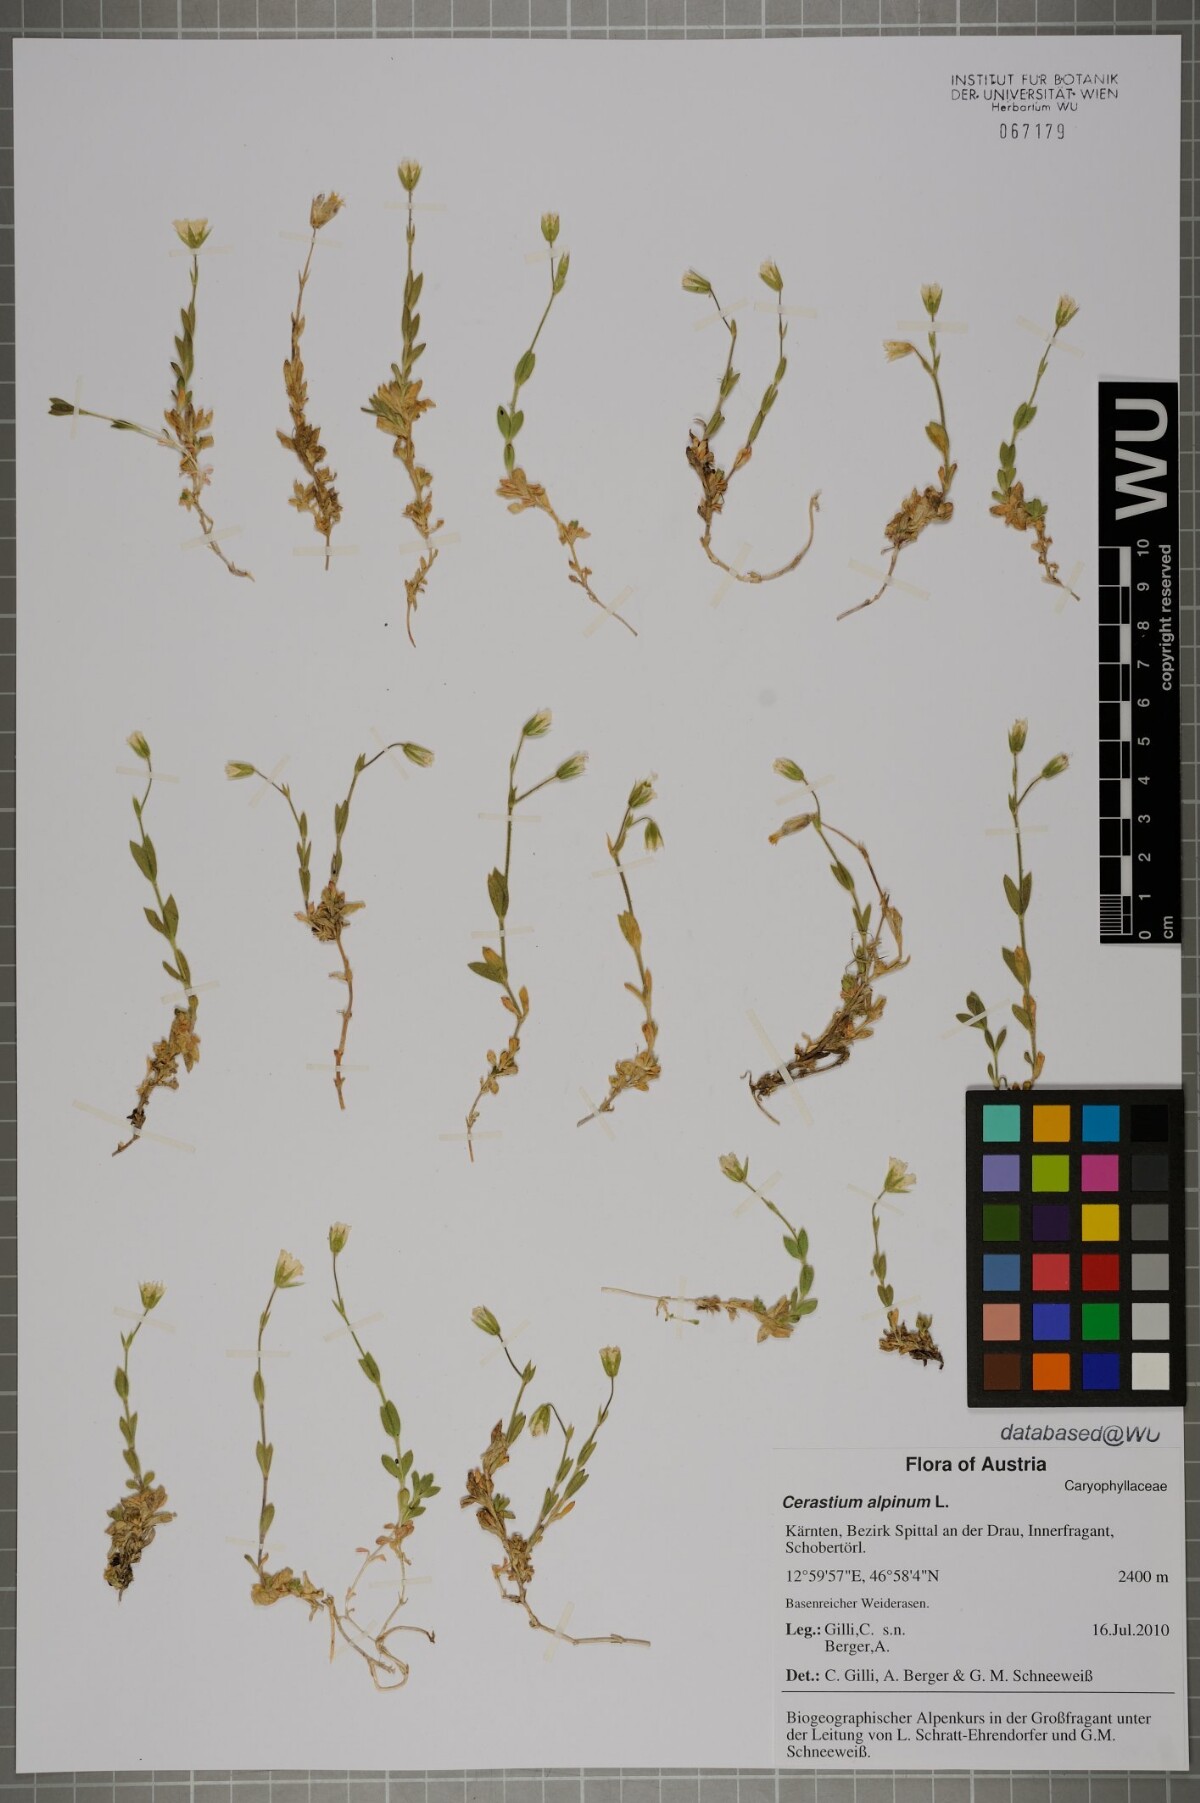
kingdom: Plantae
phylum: Tracheophyta
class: Magnoliopsida
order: Caryophyllales
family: Caryophyllaceae
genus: Cerastium
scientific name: Cerastium alpinum
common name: Alpine mouse-ear
